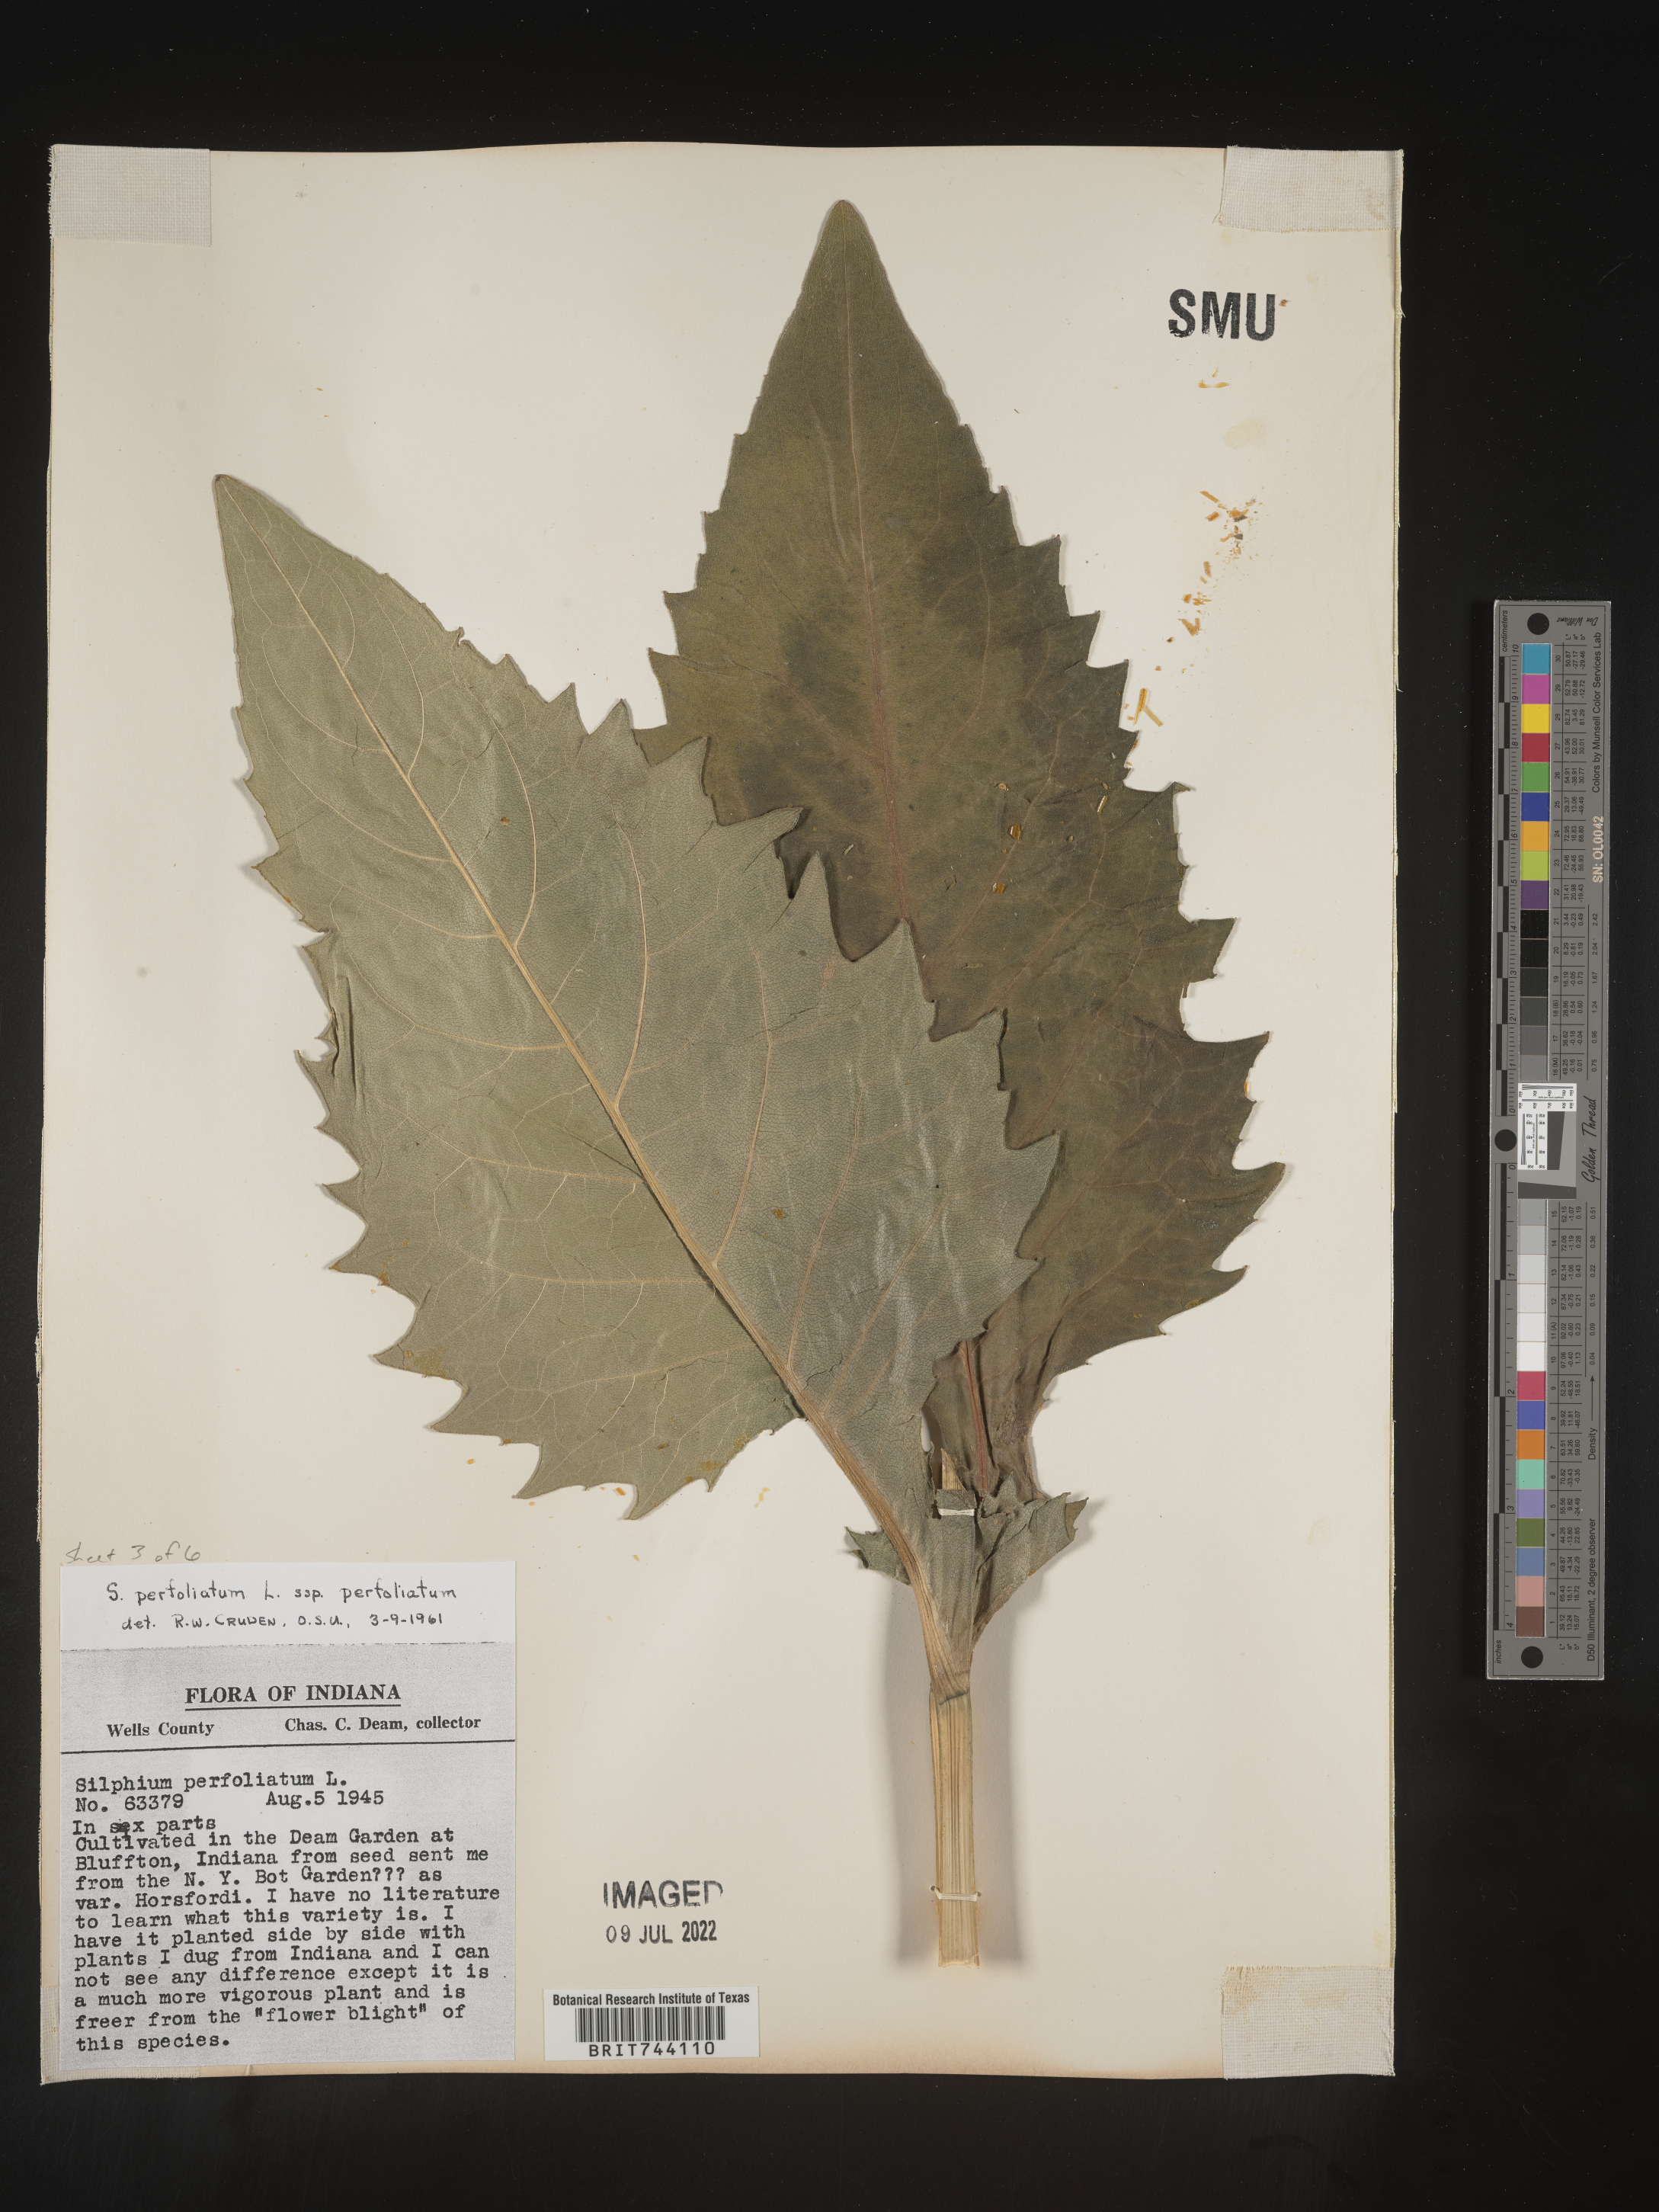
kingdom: Plantae
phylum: Tracheophyta
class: Magnoliopsida
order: Asterales
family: Asteraceae
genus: Silphium
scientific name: Silphium
